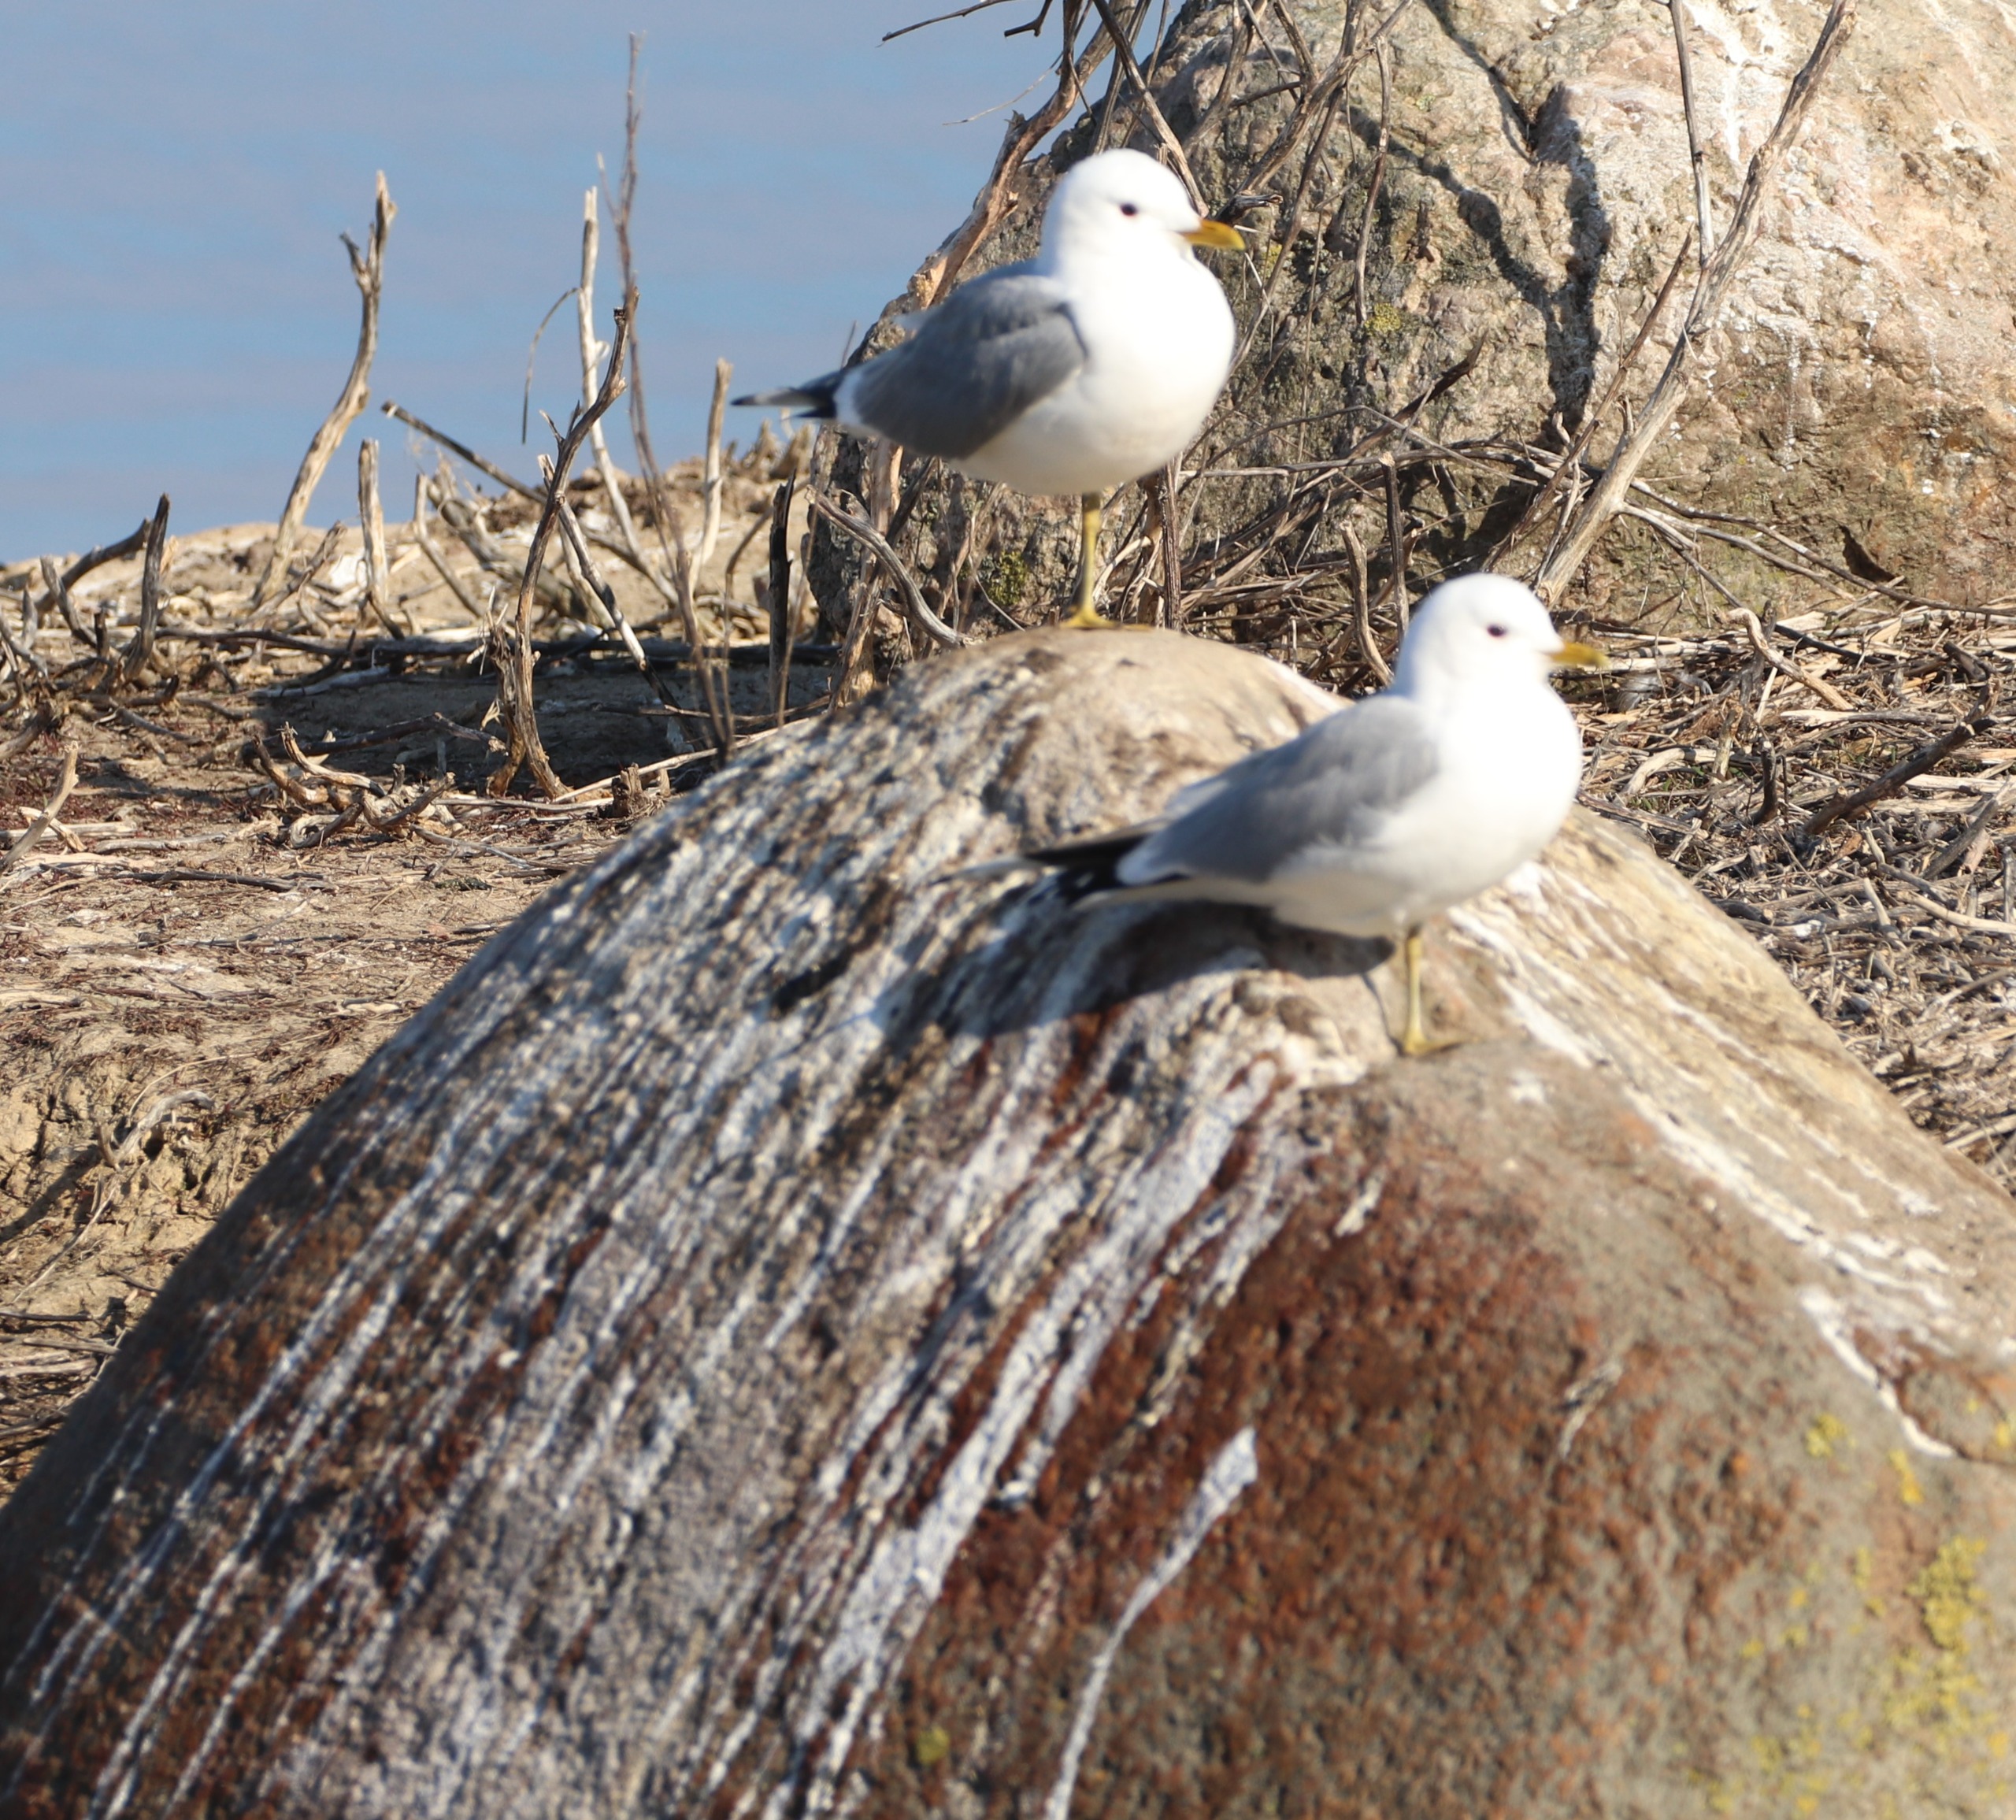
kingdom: Animalia
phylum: Chordata
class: Aves
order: Charadriiformes
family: Laridae
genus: Larus
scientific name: Larus canus
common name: Stormmåge
